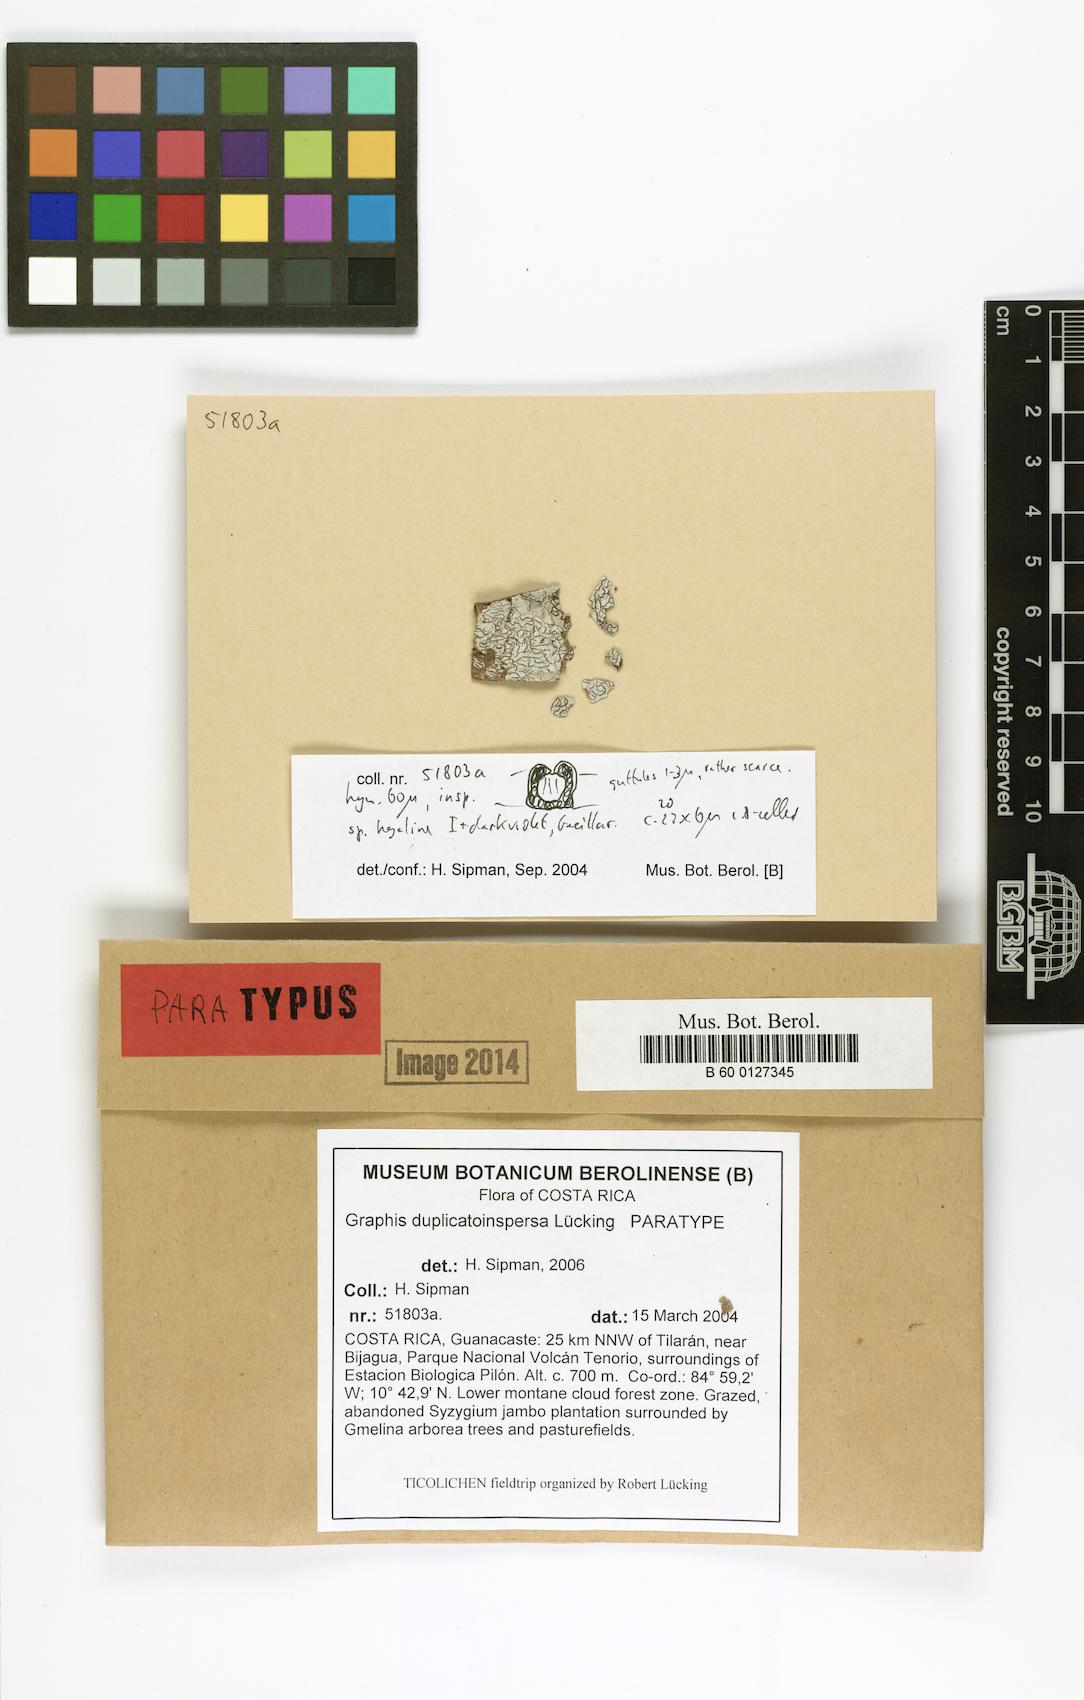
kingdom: Fungi
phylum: Ascomycota
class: Lecanoromycetes
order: Ostropales
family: Graphidaceae
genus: Graphis
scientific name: Graphis duplicatoinspersa
